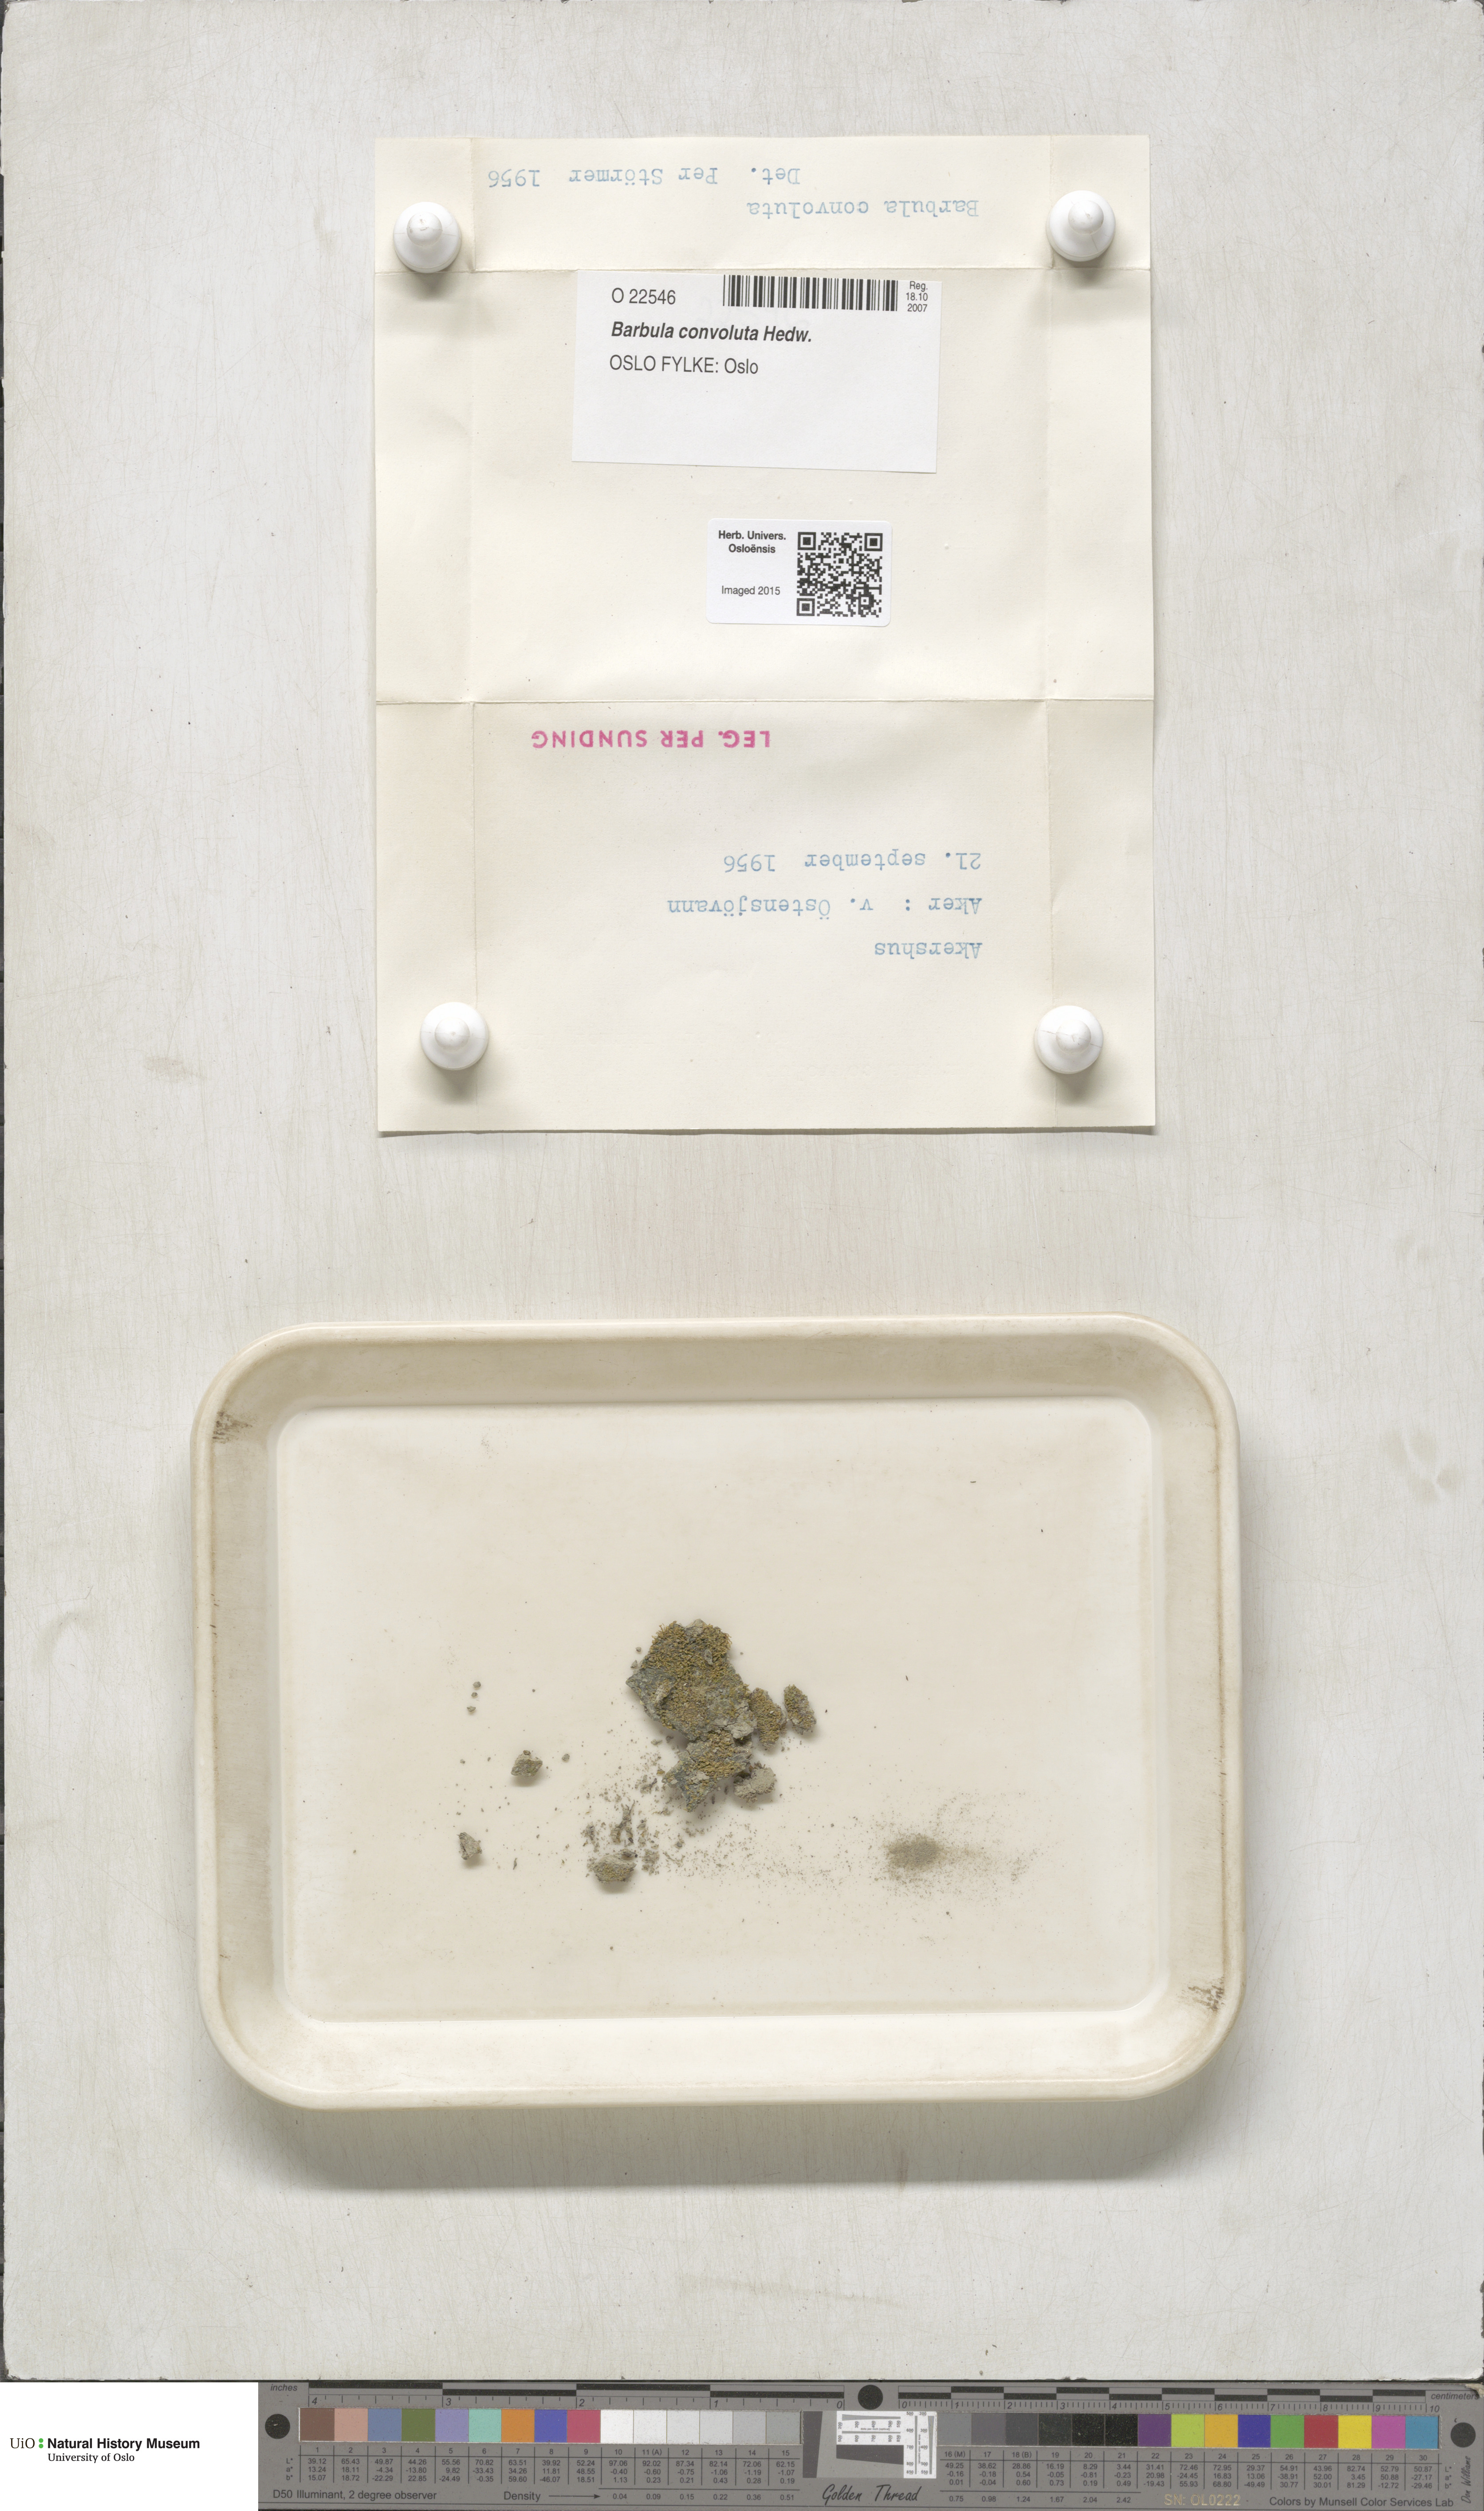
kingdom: Plantae
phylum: Bryophyta
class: Bryopsida
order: Pottiales
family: Pottiaceae
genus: Streblotrichum
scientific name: Streblotrichum convolutum
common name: Lesser bird's-claw beard-moss
